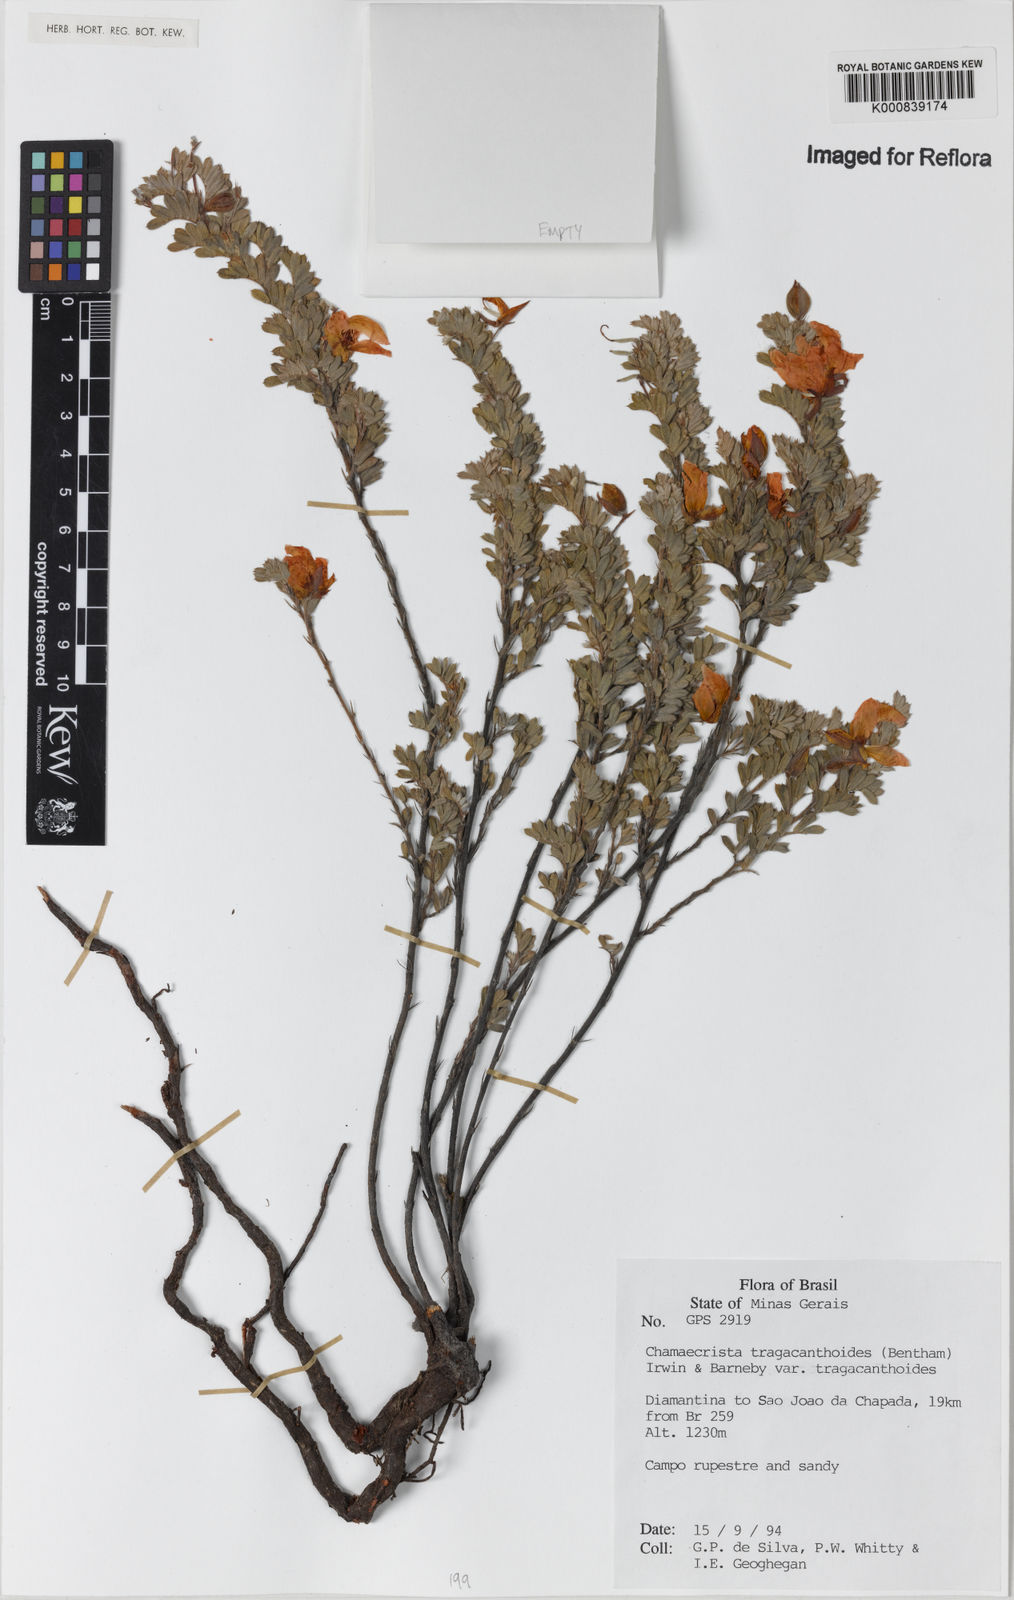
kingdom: Plantae
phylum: Tracheophyta
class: Magnoliopsida
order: Fabales
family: Fabaceae
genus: Chamaecrista
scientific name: Chamaecrista tragacanthoides
